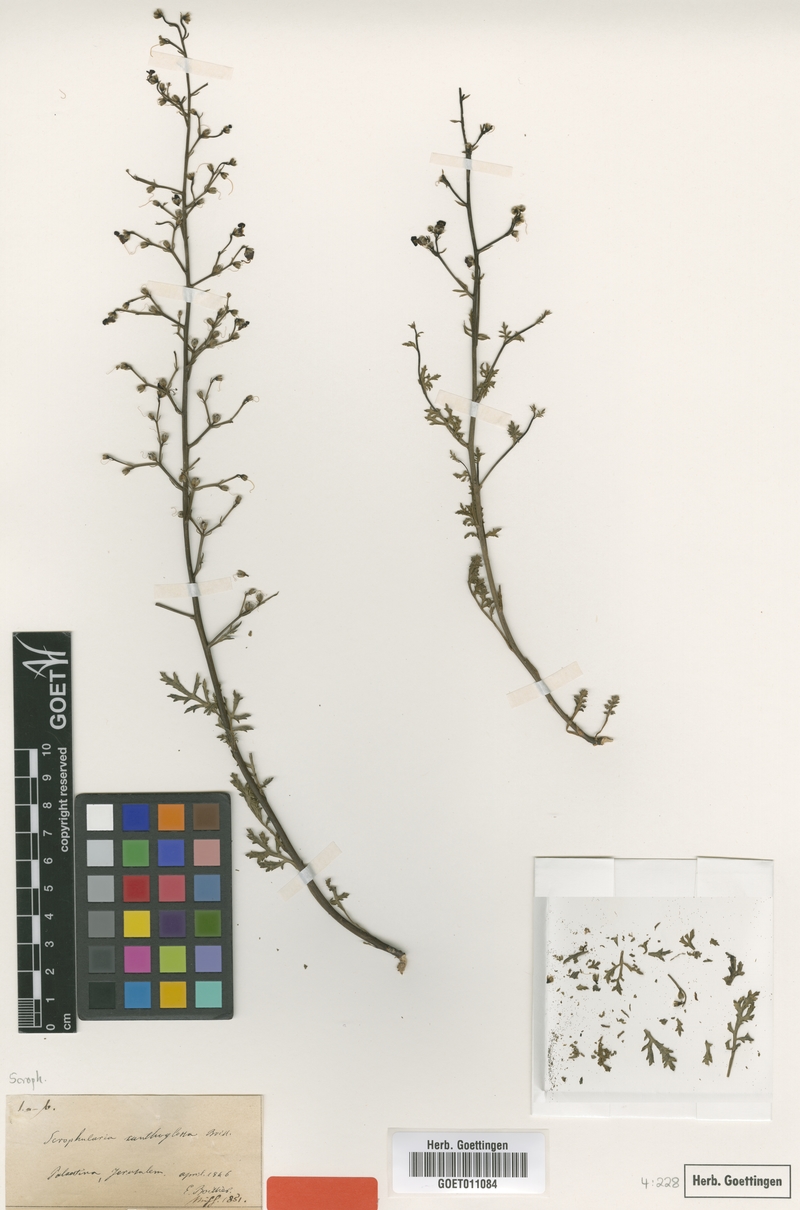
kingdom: Plantae
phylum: Tracheophyta
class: Magnoliopsida
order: Lamiales
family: Scrophulariaceae
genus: Scrophularia
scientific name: Scrophularia xanthoglossa
